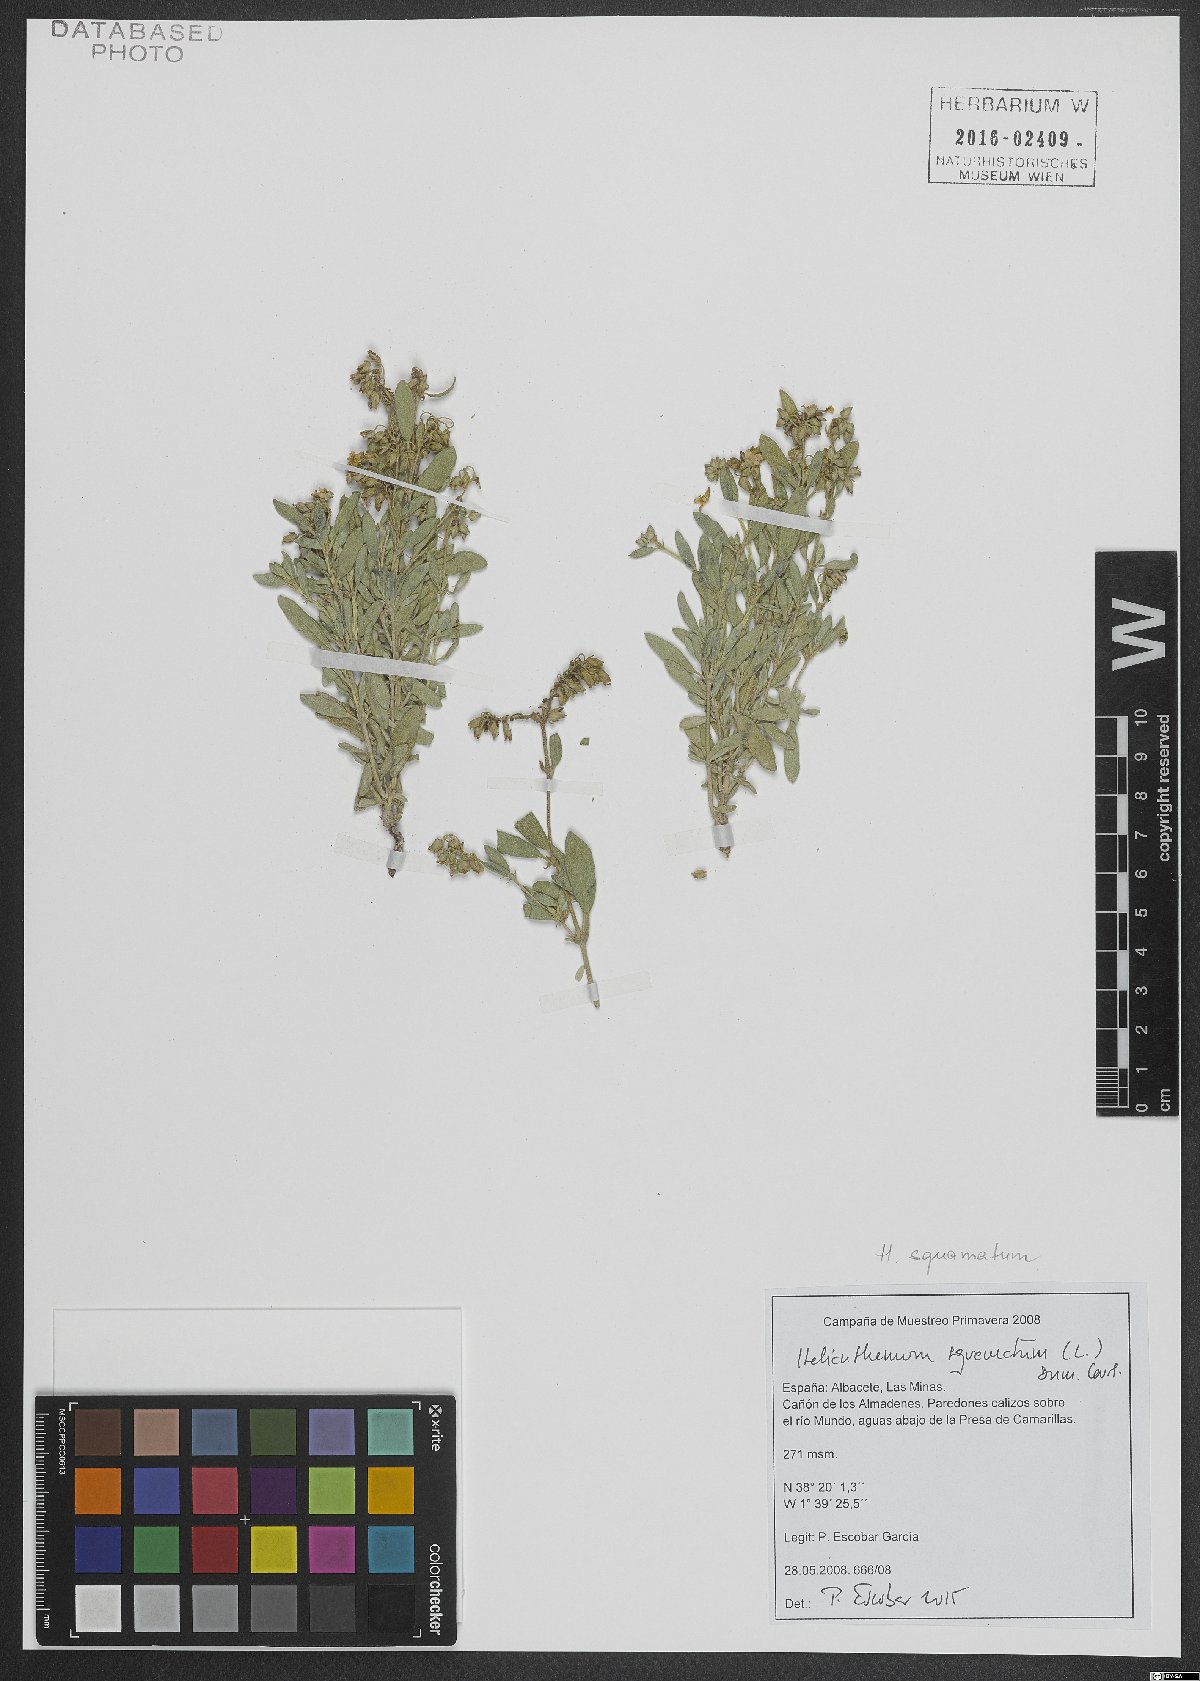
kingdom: Plantae
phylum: Tracheophyta
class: Magnoliopsida
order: Malvales
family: Cistaceae
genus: Helianthemum
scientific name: Helianthemum squamatum
